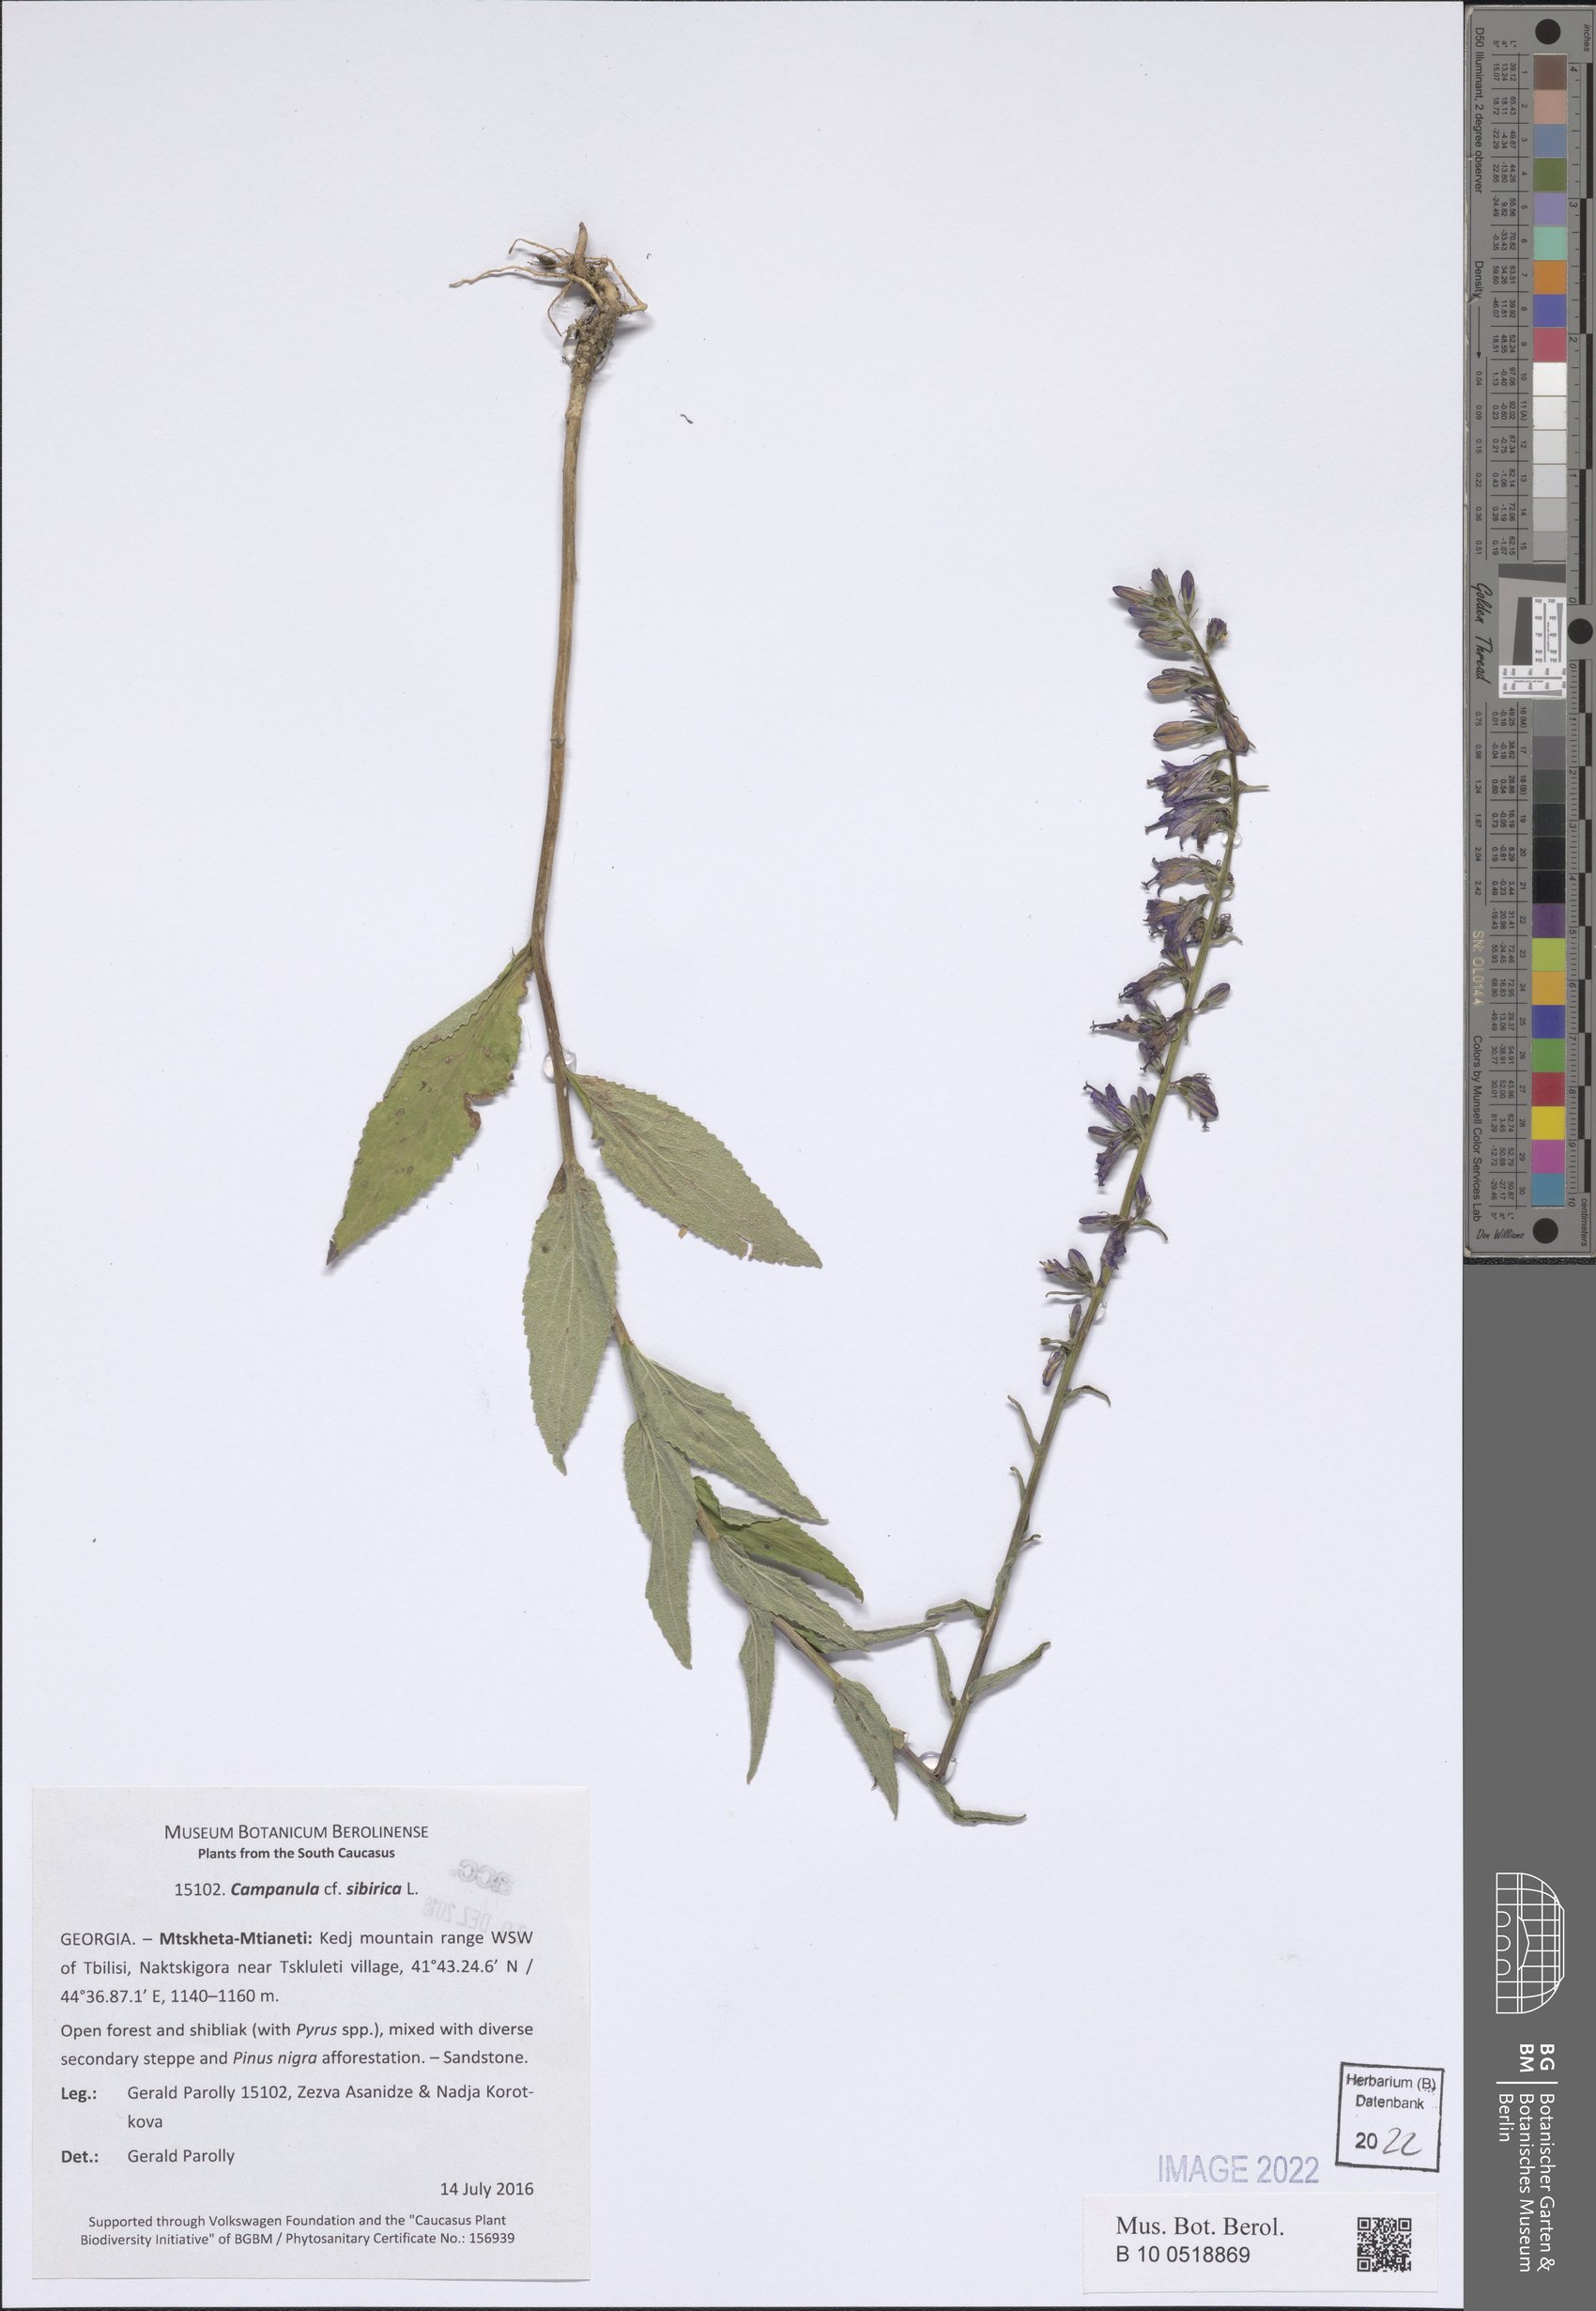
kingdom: Plantae
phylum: Tracheophyta
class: Magnoliopsida
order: Asterales
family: Campanulaceae
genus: Campanula
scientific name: Campanula sibirica
